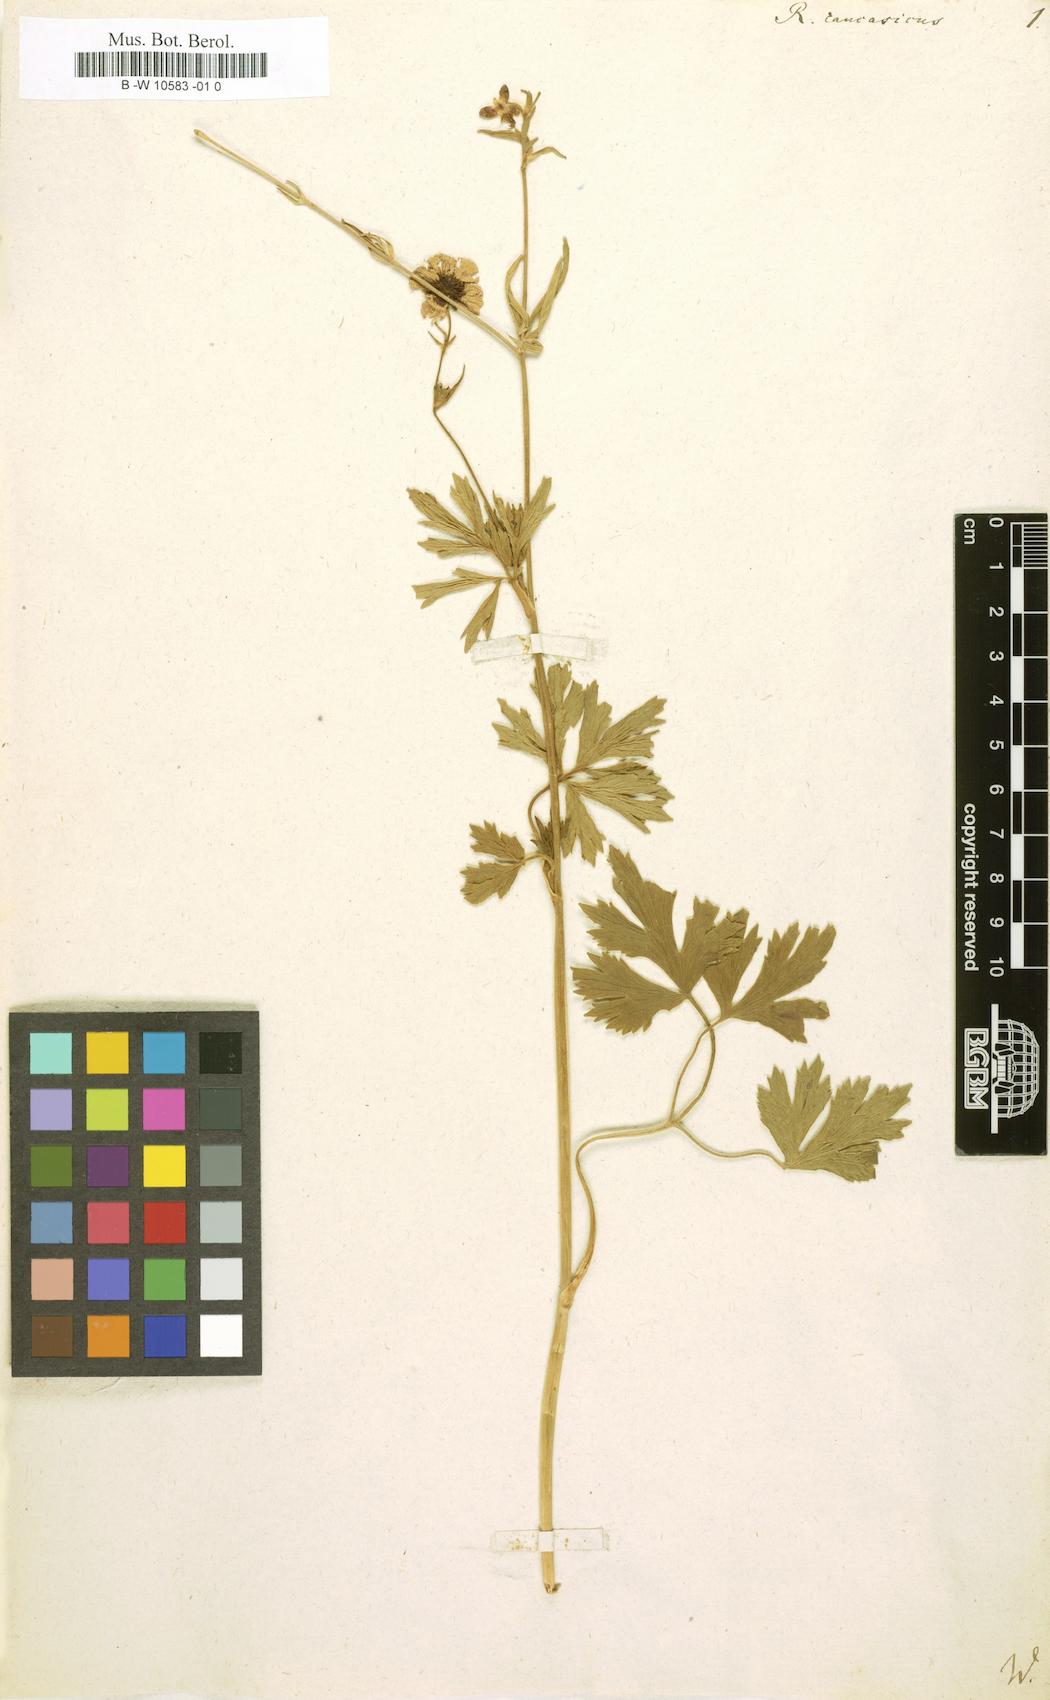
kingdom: Plantae
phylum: Tracheophyta
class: Magnoliopsida
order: Ranunculales
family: Ranunculaceae
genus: Ranunculus
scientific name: Ranunculus caucasicus
